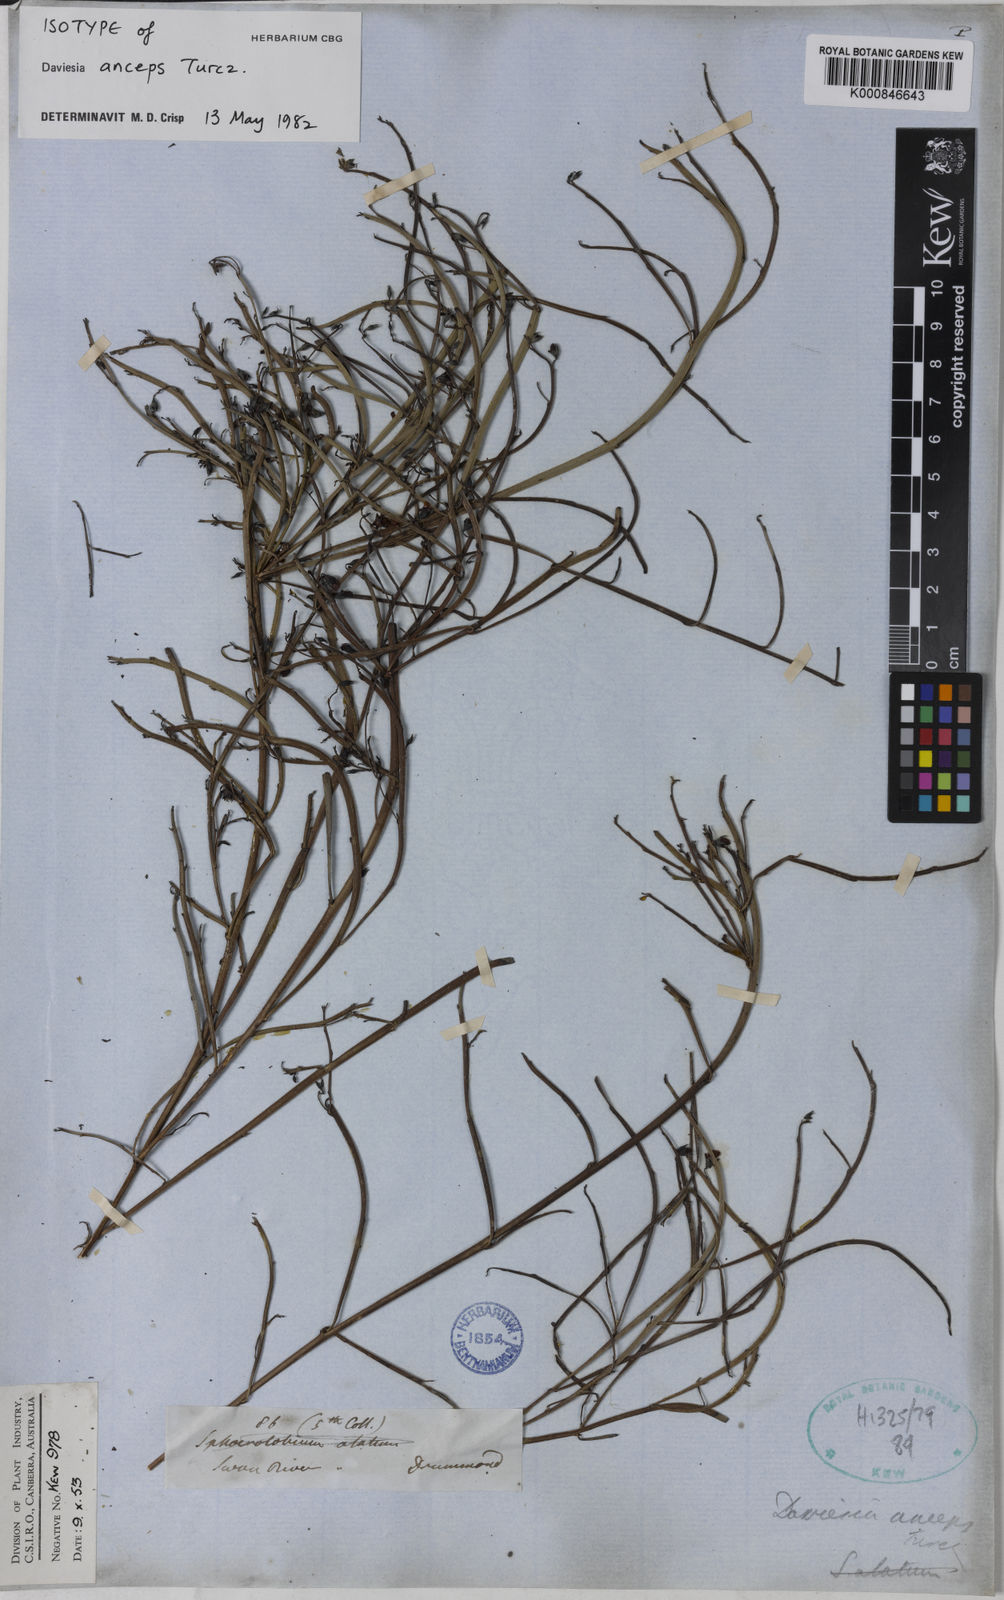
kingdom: Plantae
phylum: Tracheophyta
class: Magnoliopsida
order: Fabales
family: Fabaceae
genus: Daviesia
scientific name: Daviesia anceps
